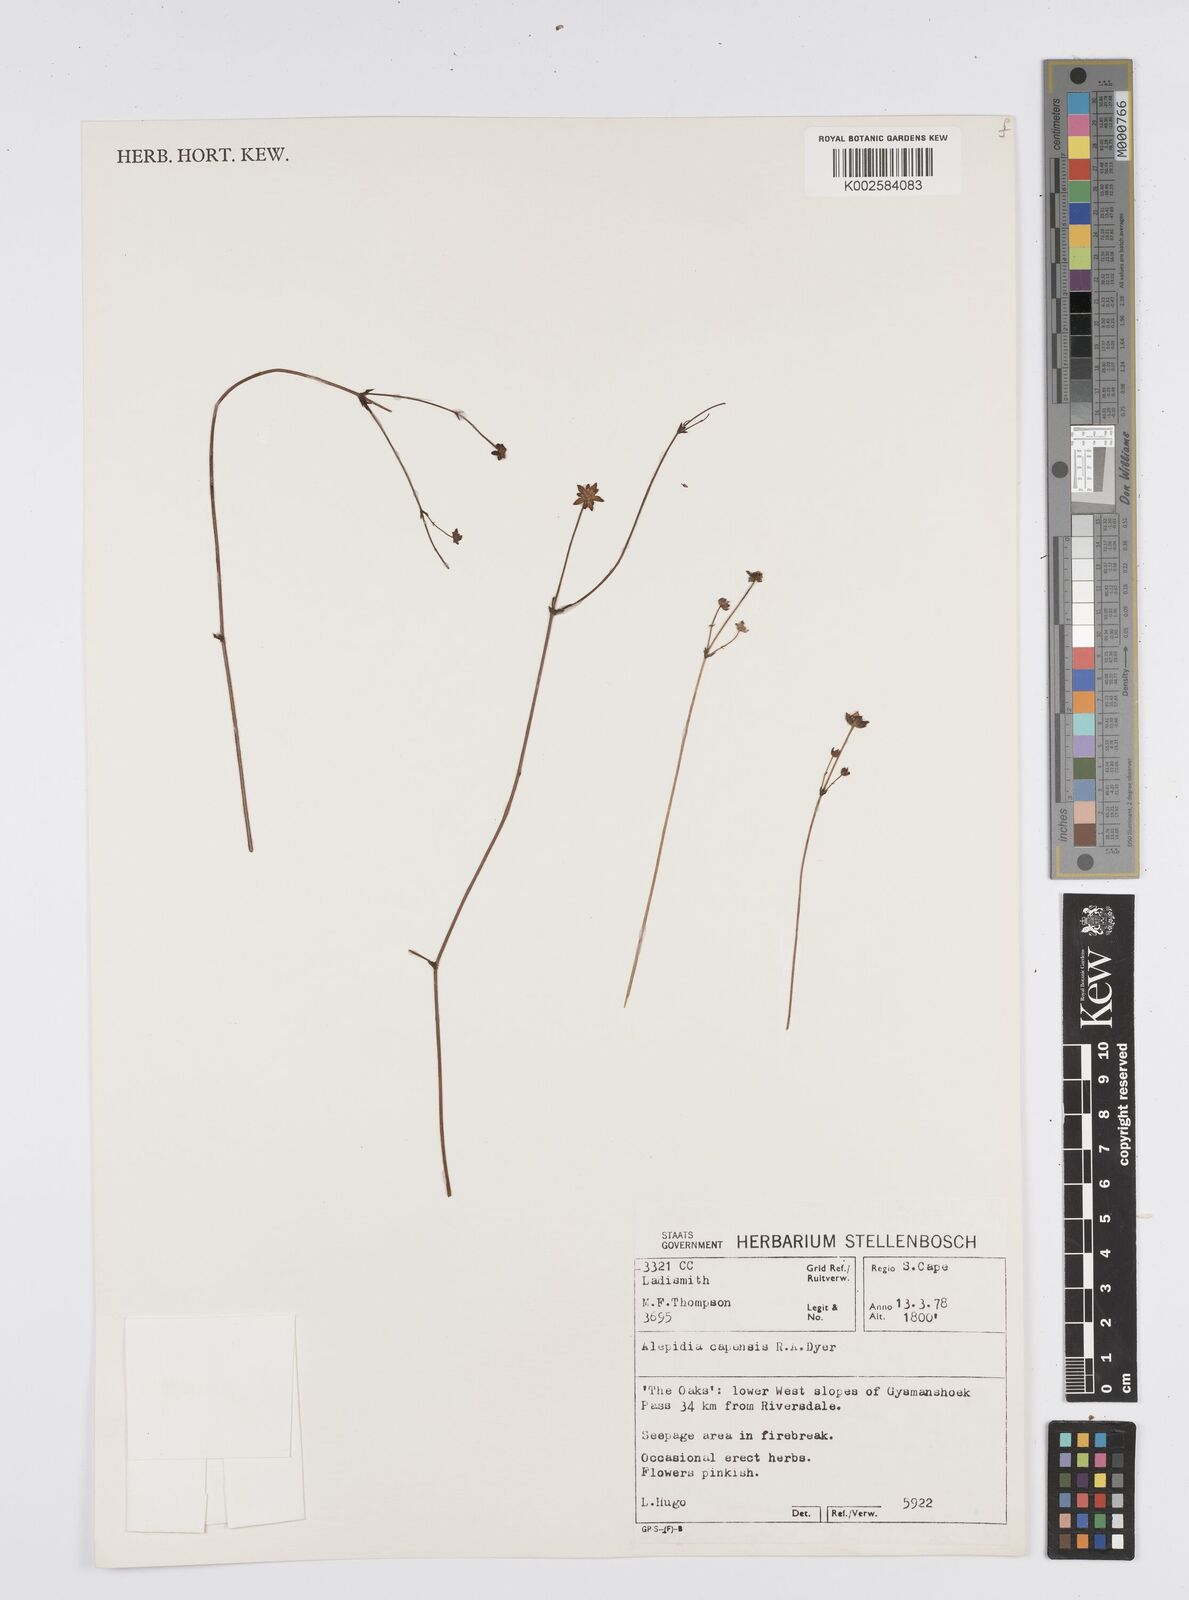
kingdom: Plantae
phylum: Tracheophyta
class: Magnoliopsida
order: Apiales
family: Apiaceae
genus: Alepidea
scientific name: Alepidea capensis
